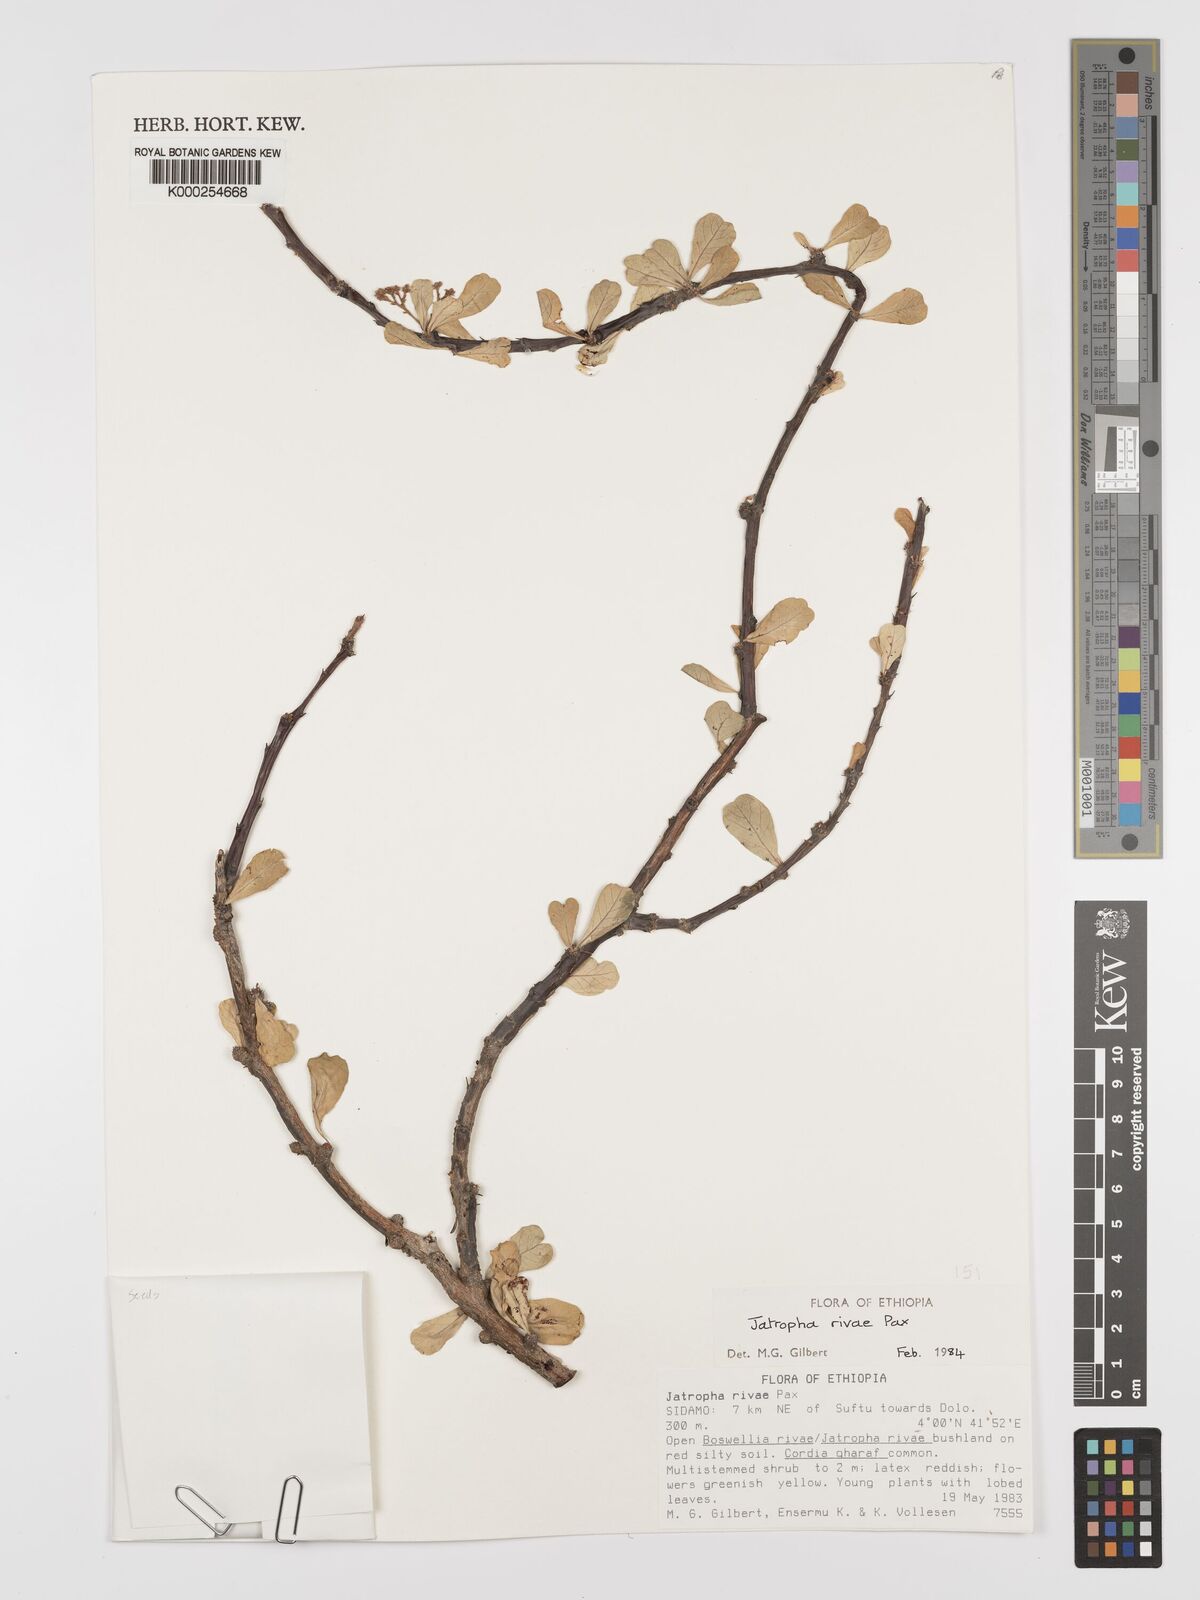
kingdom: Plantae
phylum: Tracheophyta
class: Magnoliopsida
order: Malpighiales
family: Euphorbiaceae
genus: Jatropha
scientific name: Jatropha rivae
